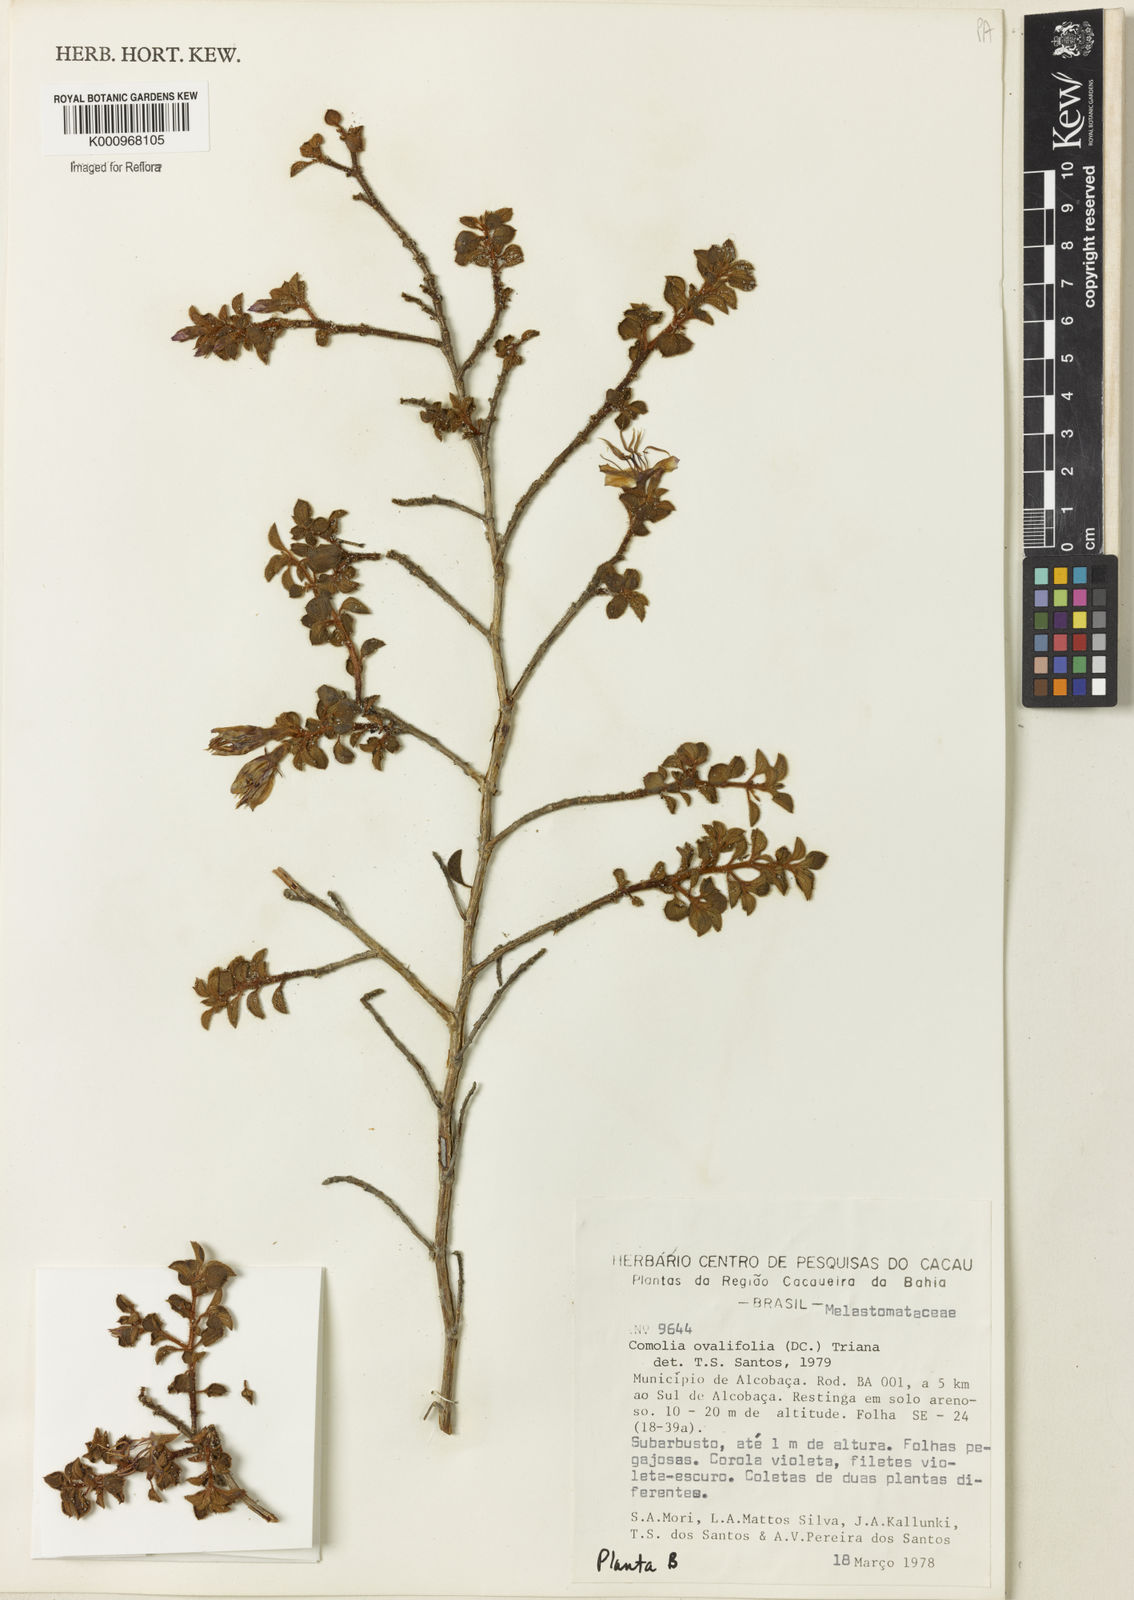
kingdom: Plantae
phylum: Tracheophyta
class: Magnoliopsida
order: Myrtales
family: Melastomataceae
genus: Comolia
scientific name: Comolia ovalifolia
